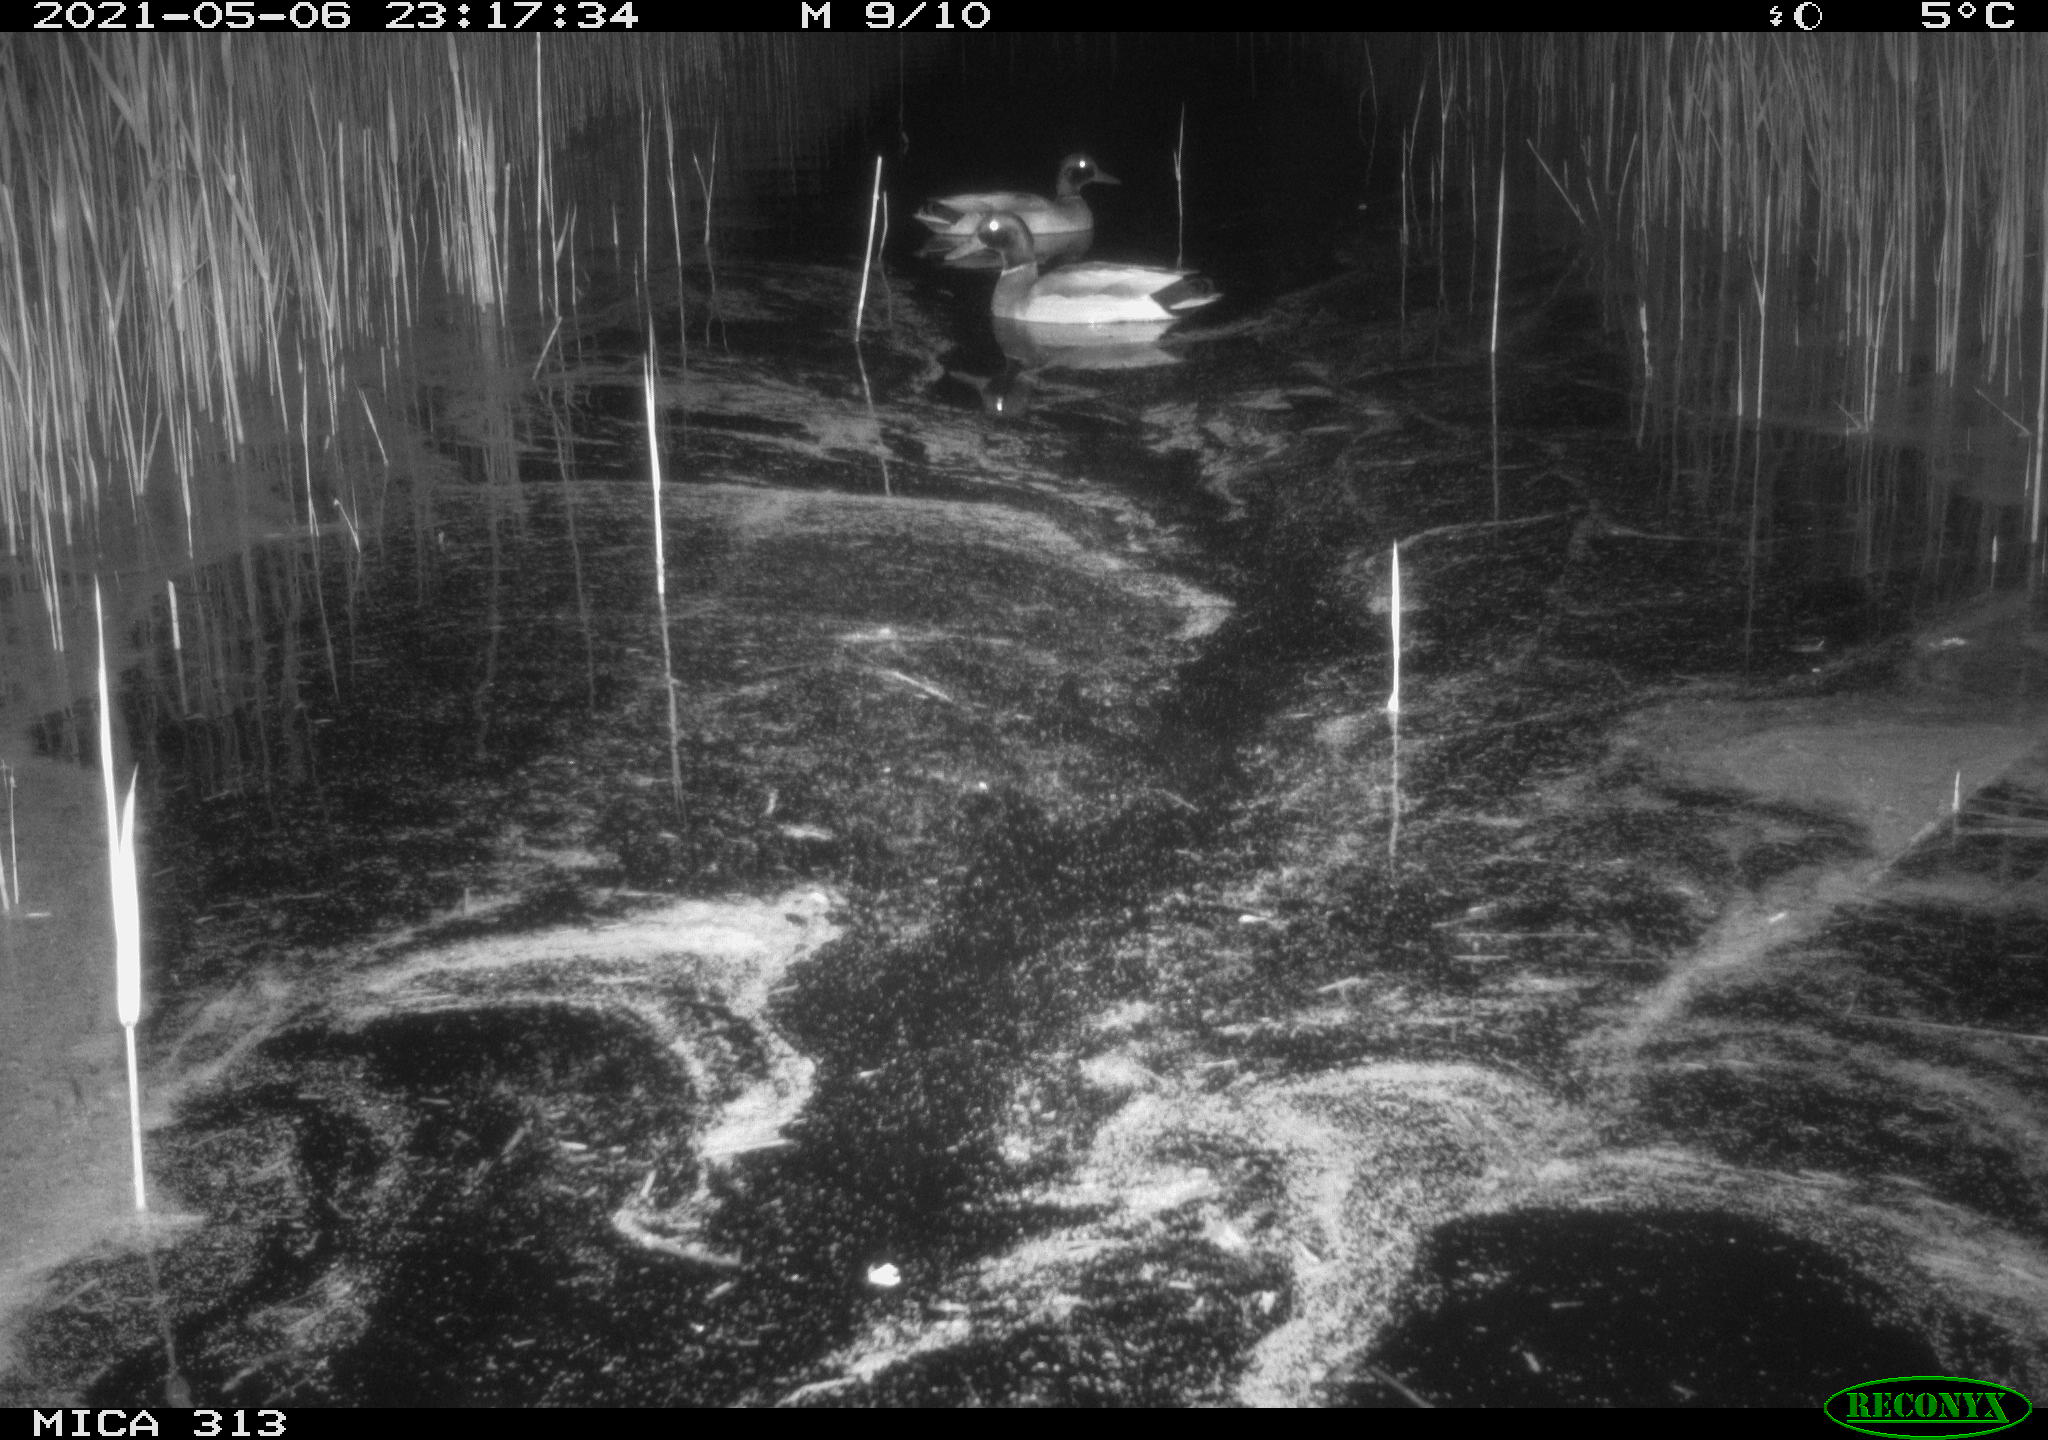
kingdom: Animalia
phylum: Chordata
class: Aves
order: Anseriformes
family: Anatidae
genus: Anas
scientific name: Anas platyrhynchos
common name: Mallard
